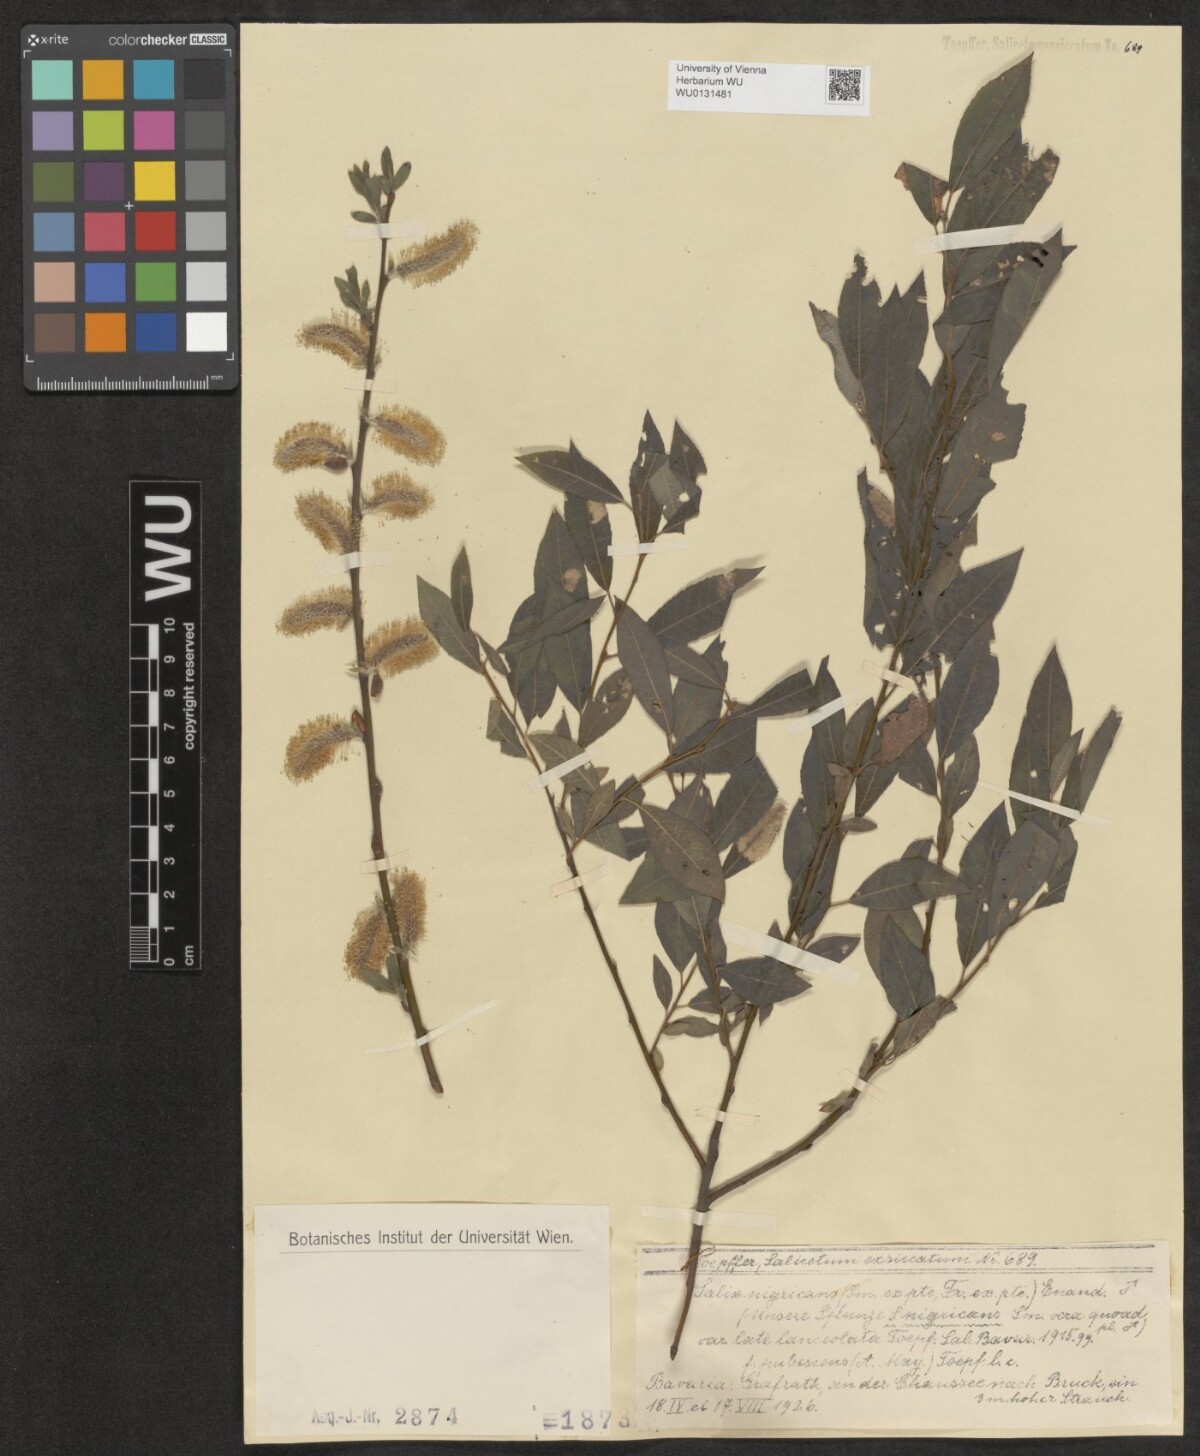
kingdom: Plantae
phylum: Tracheophyta
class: Magnoliopsida
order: Malpighiales
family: Salicaceae
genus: Salix
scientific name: Salix myrsinifolia
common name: Dark-leaved willow
